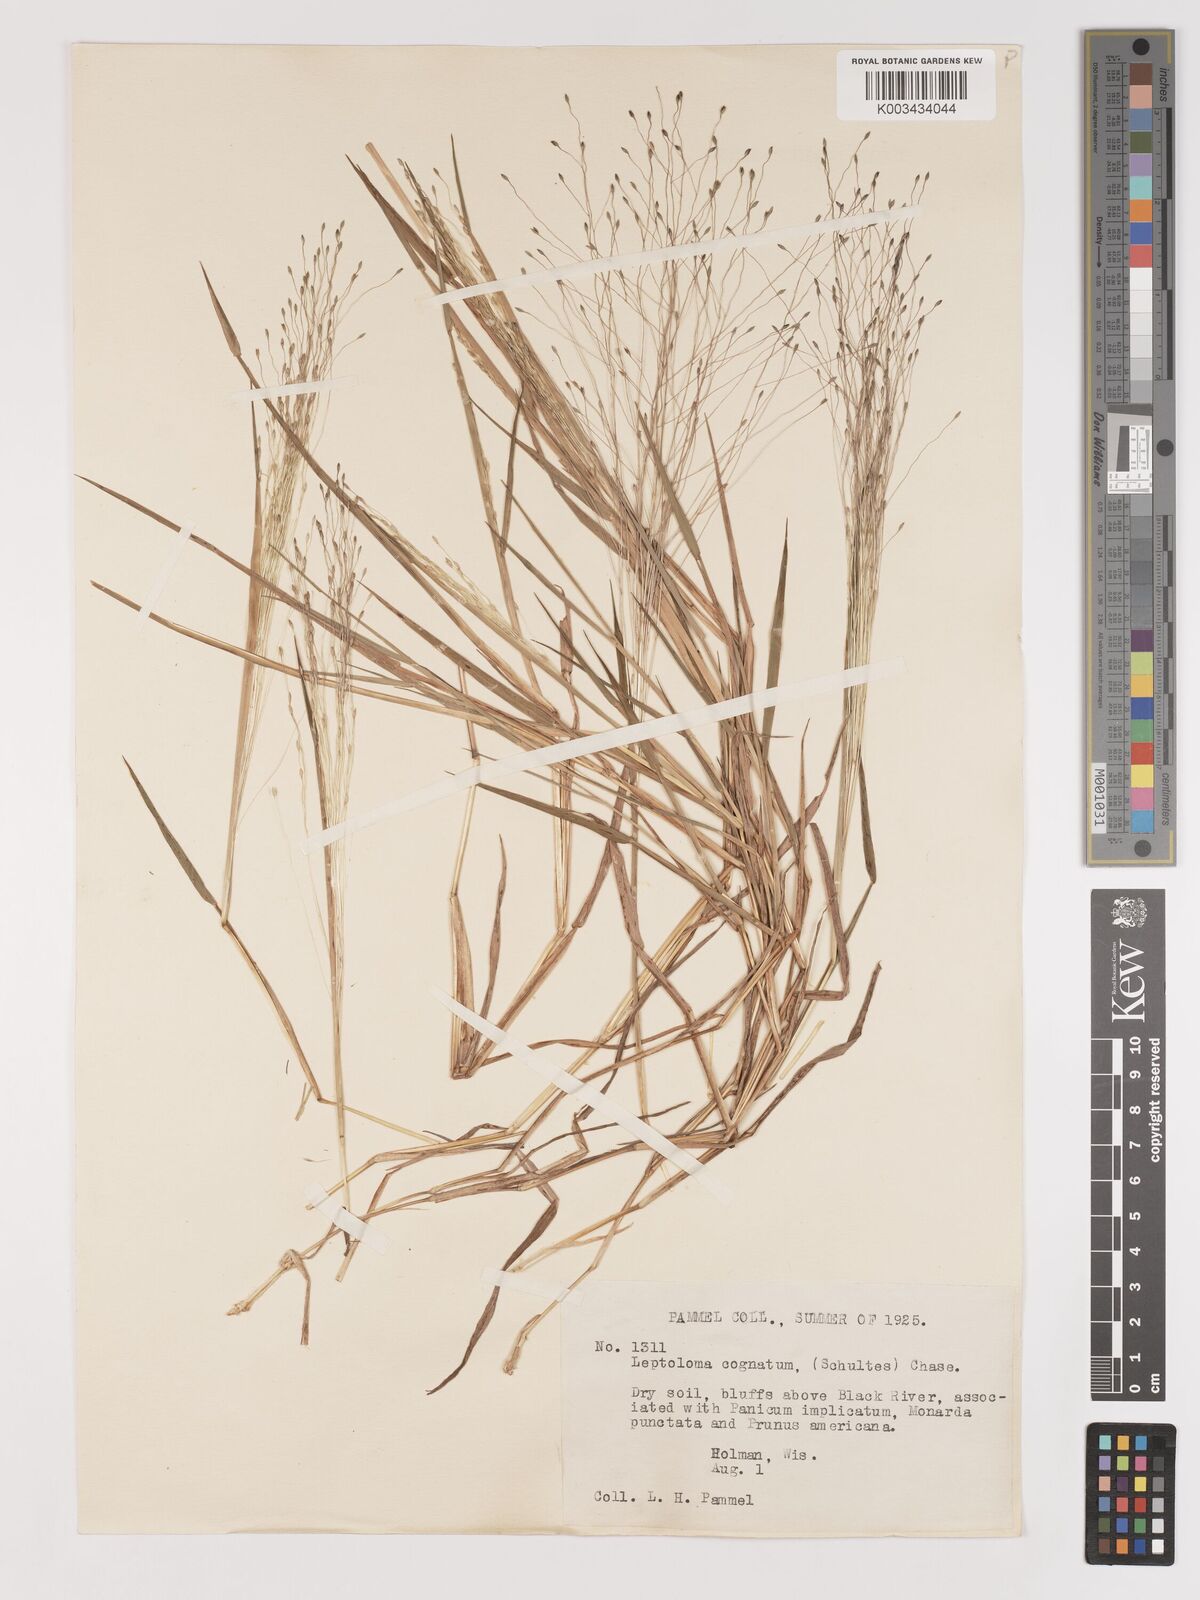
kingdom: Plantae
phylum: Tracheophyta
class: Liliopsida
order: Poales
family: Poaceae
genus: Digitaria
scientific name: Digitaria cognata
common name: Fall witchgrass
